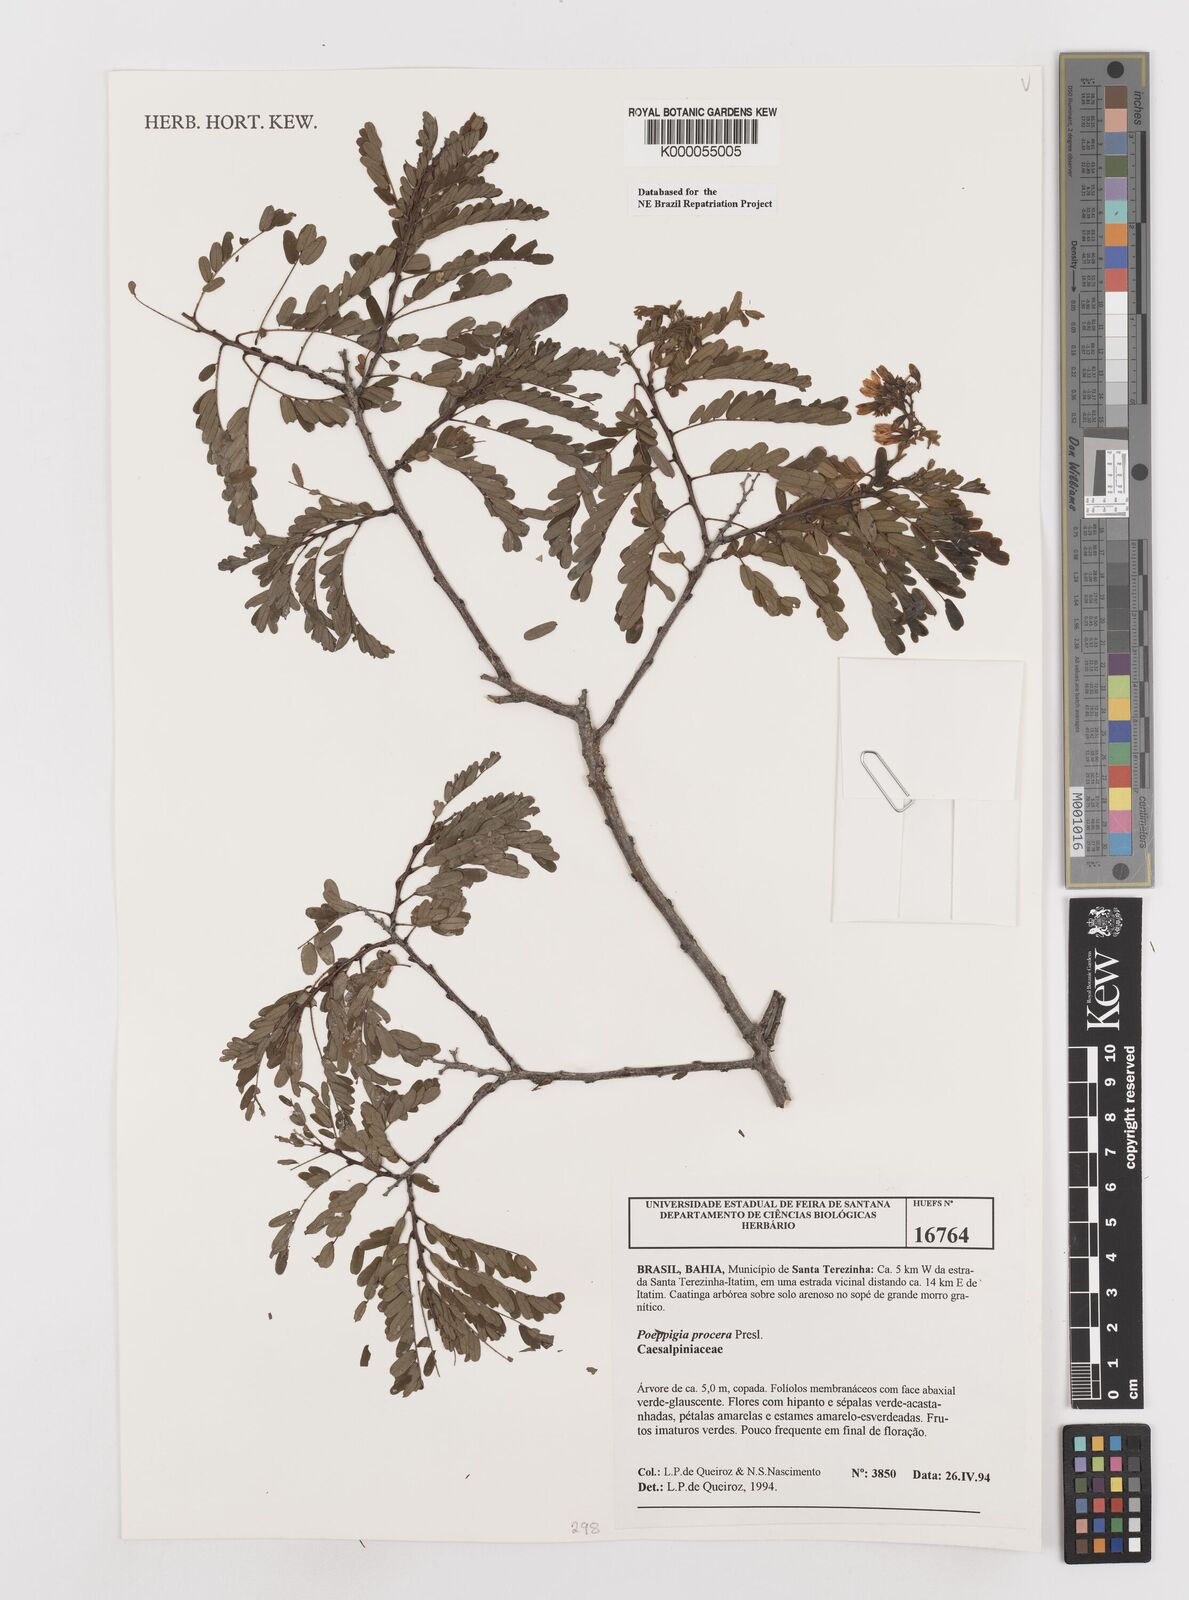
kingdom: Plantae
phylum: Tracheophyta
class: Magnoliopsida
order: Fabales
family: Fabaceae
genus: Poeppigia
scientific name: Poeppigia procera
